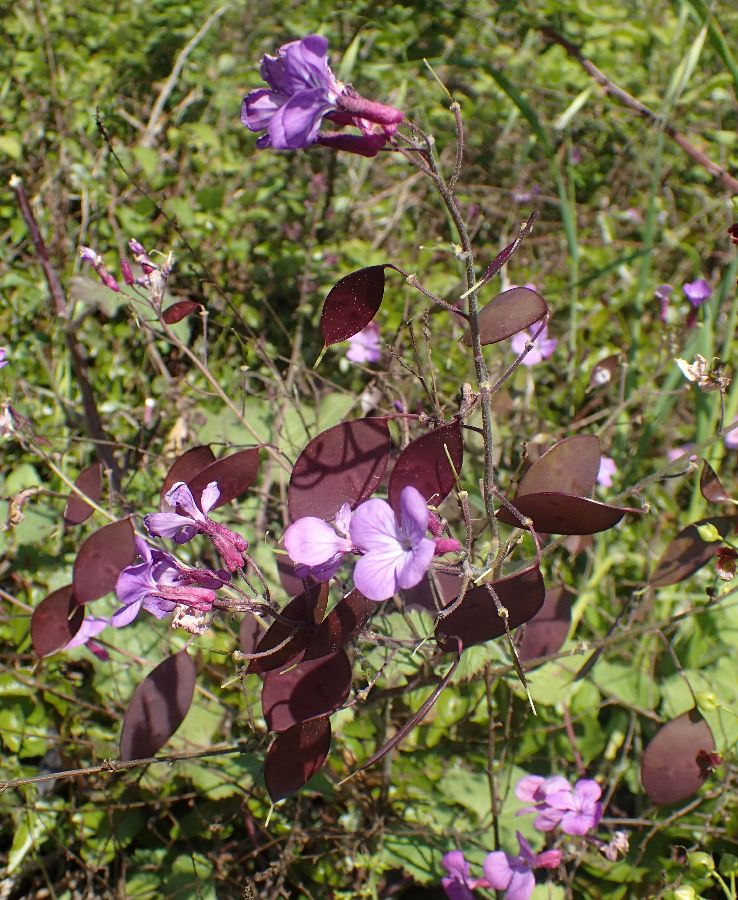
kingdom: Plantae
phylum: Tracheophyta
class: Magnoliopsida
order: Brassicales
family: Brassicaceae
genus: Lunaria
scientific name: Lunaria annua
